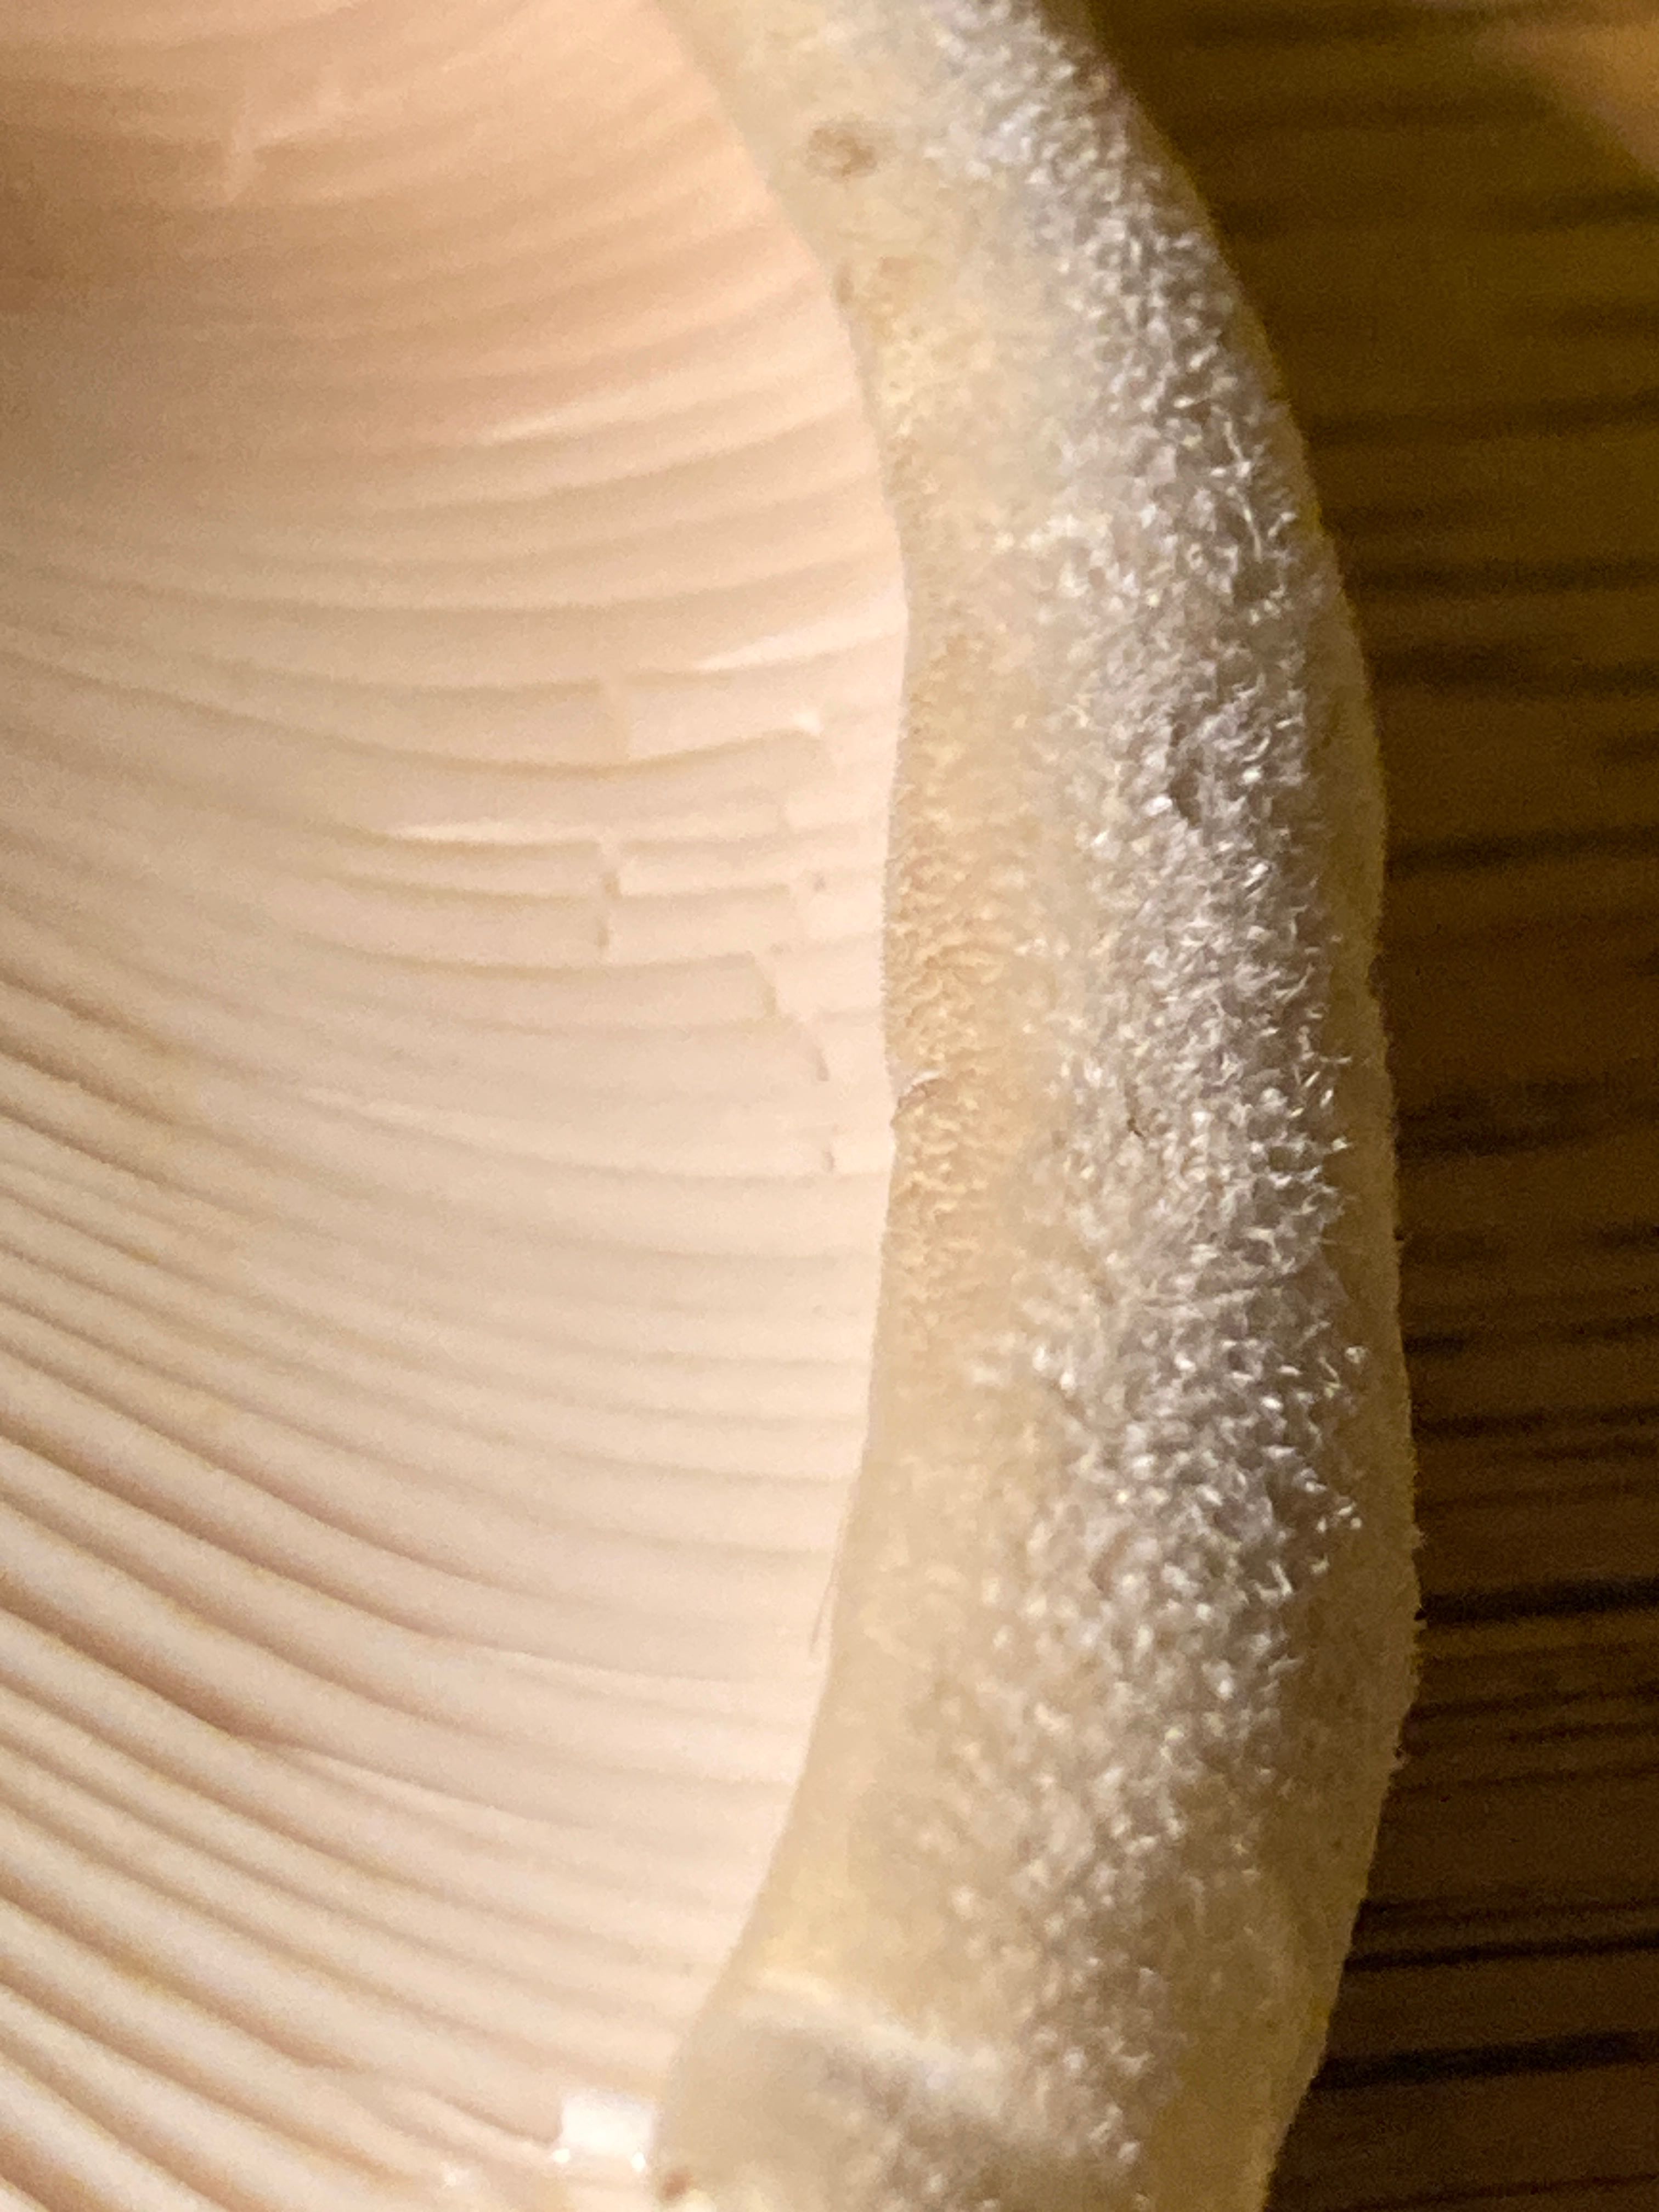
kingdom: Fungi
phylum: Basidiomycota
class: Agaricomycetes
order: Russulales
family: Russulaceae
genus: Lactifluus
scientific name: Lactifluus vellereus
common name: hvidfiltet mælkehat
